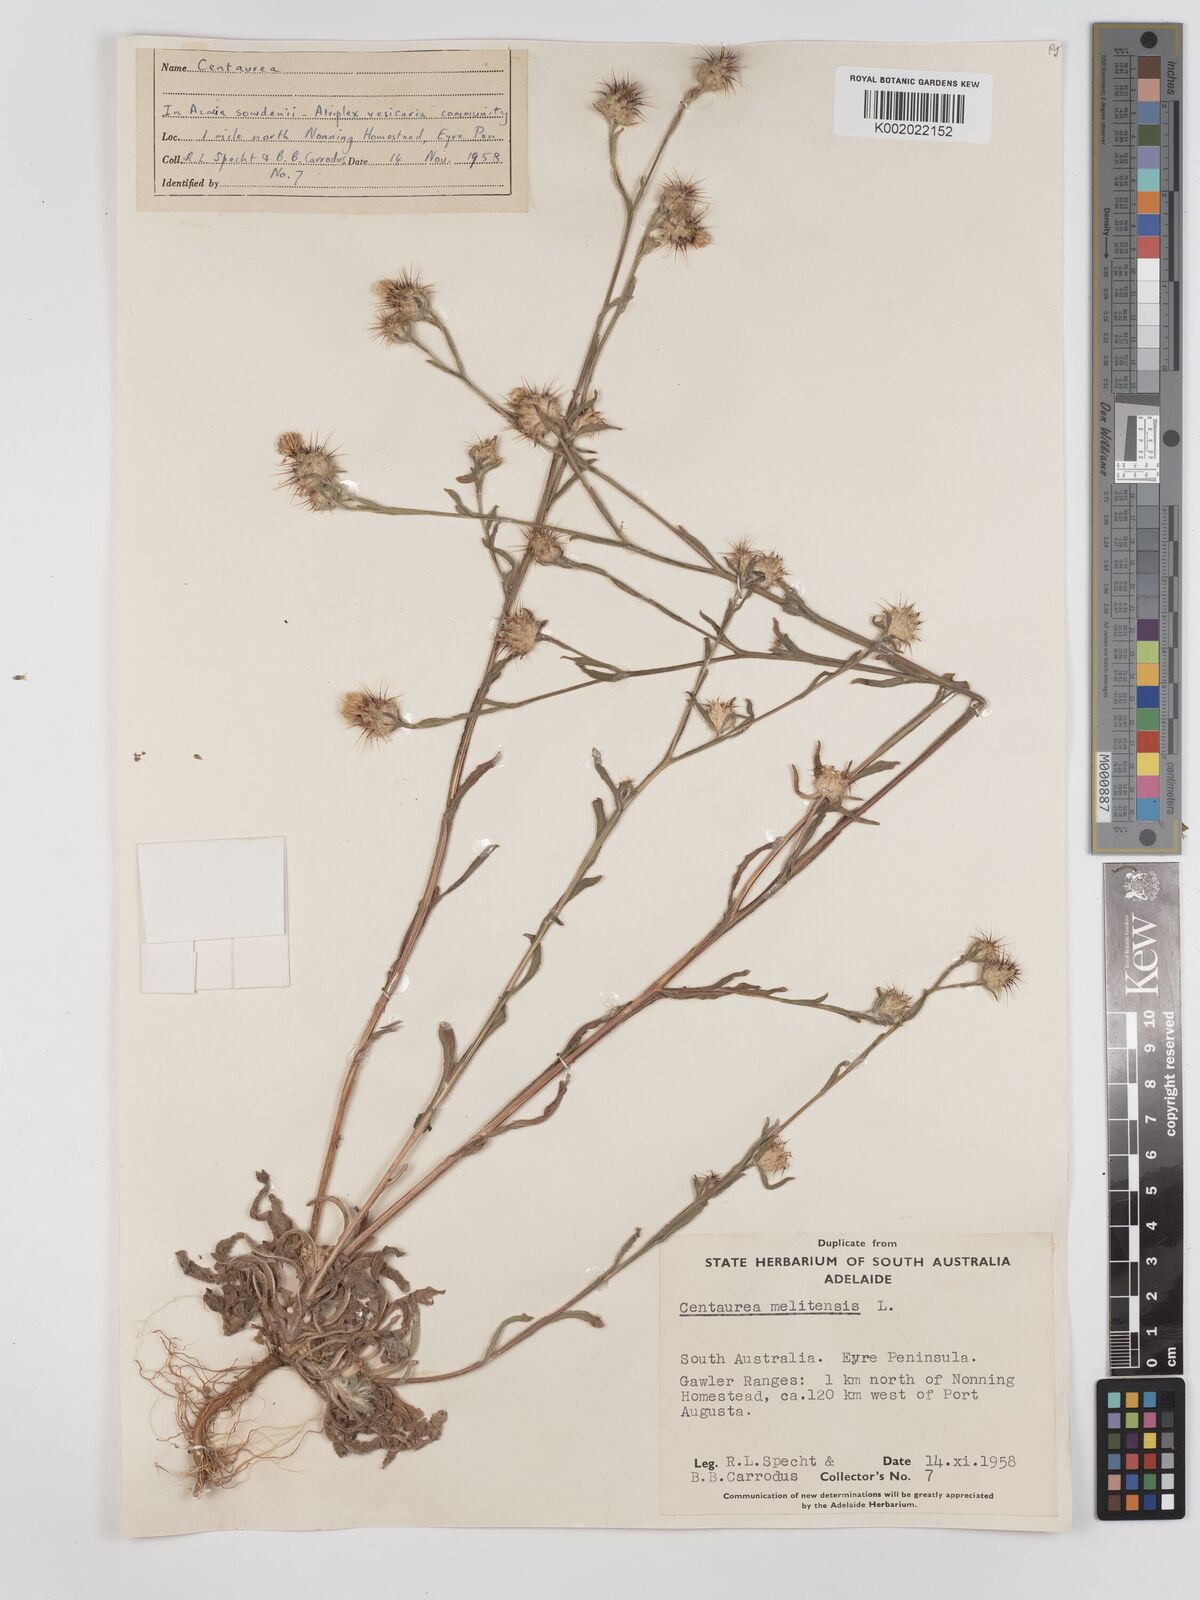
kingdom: Plantae
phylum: Tracheophyta
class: Magnoliopsida
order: Asterales
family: Asteraceae
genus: Centaurea
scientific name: Centaurea melitensis
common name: Maltese star-thistle
